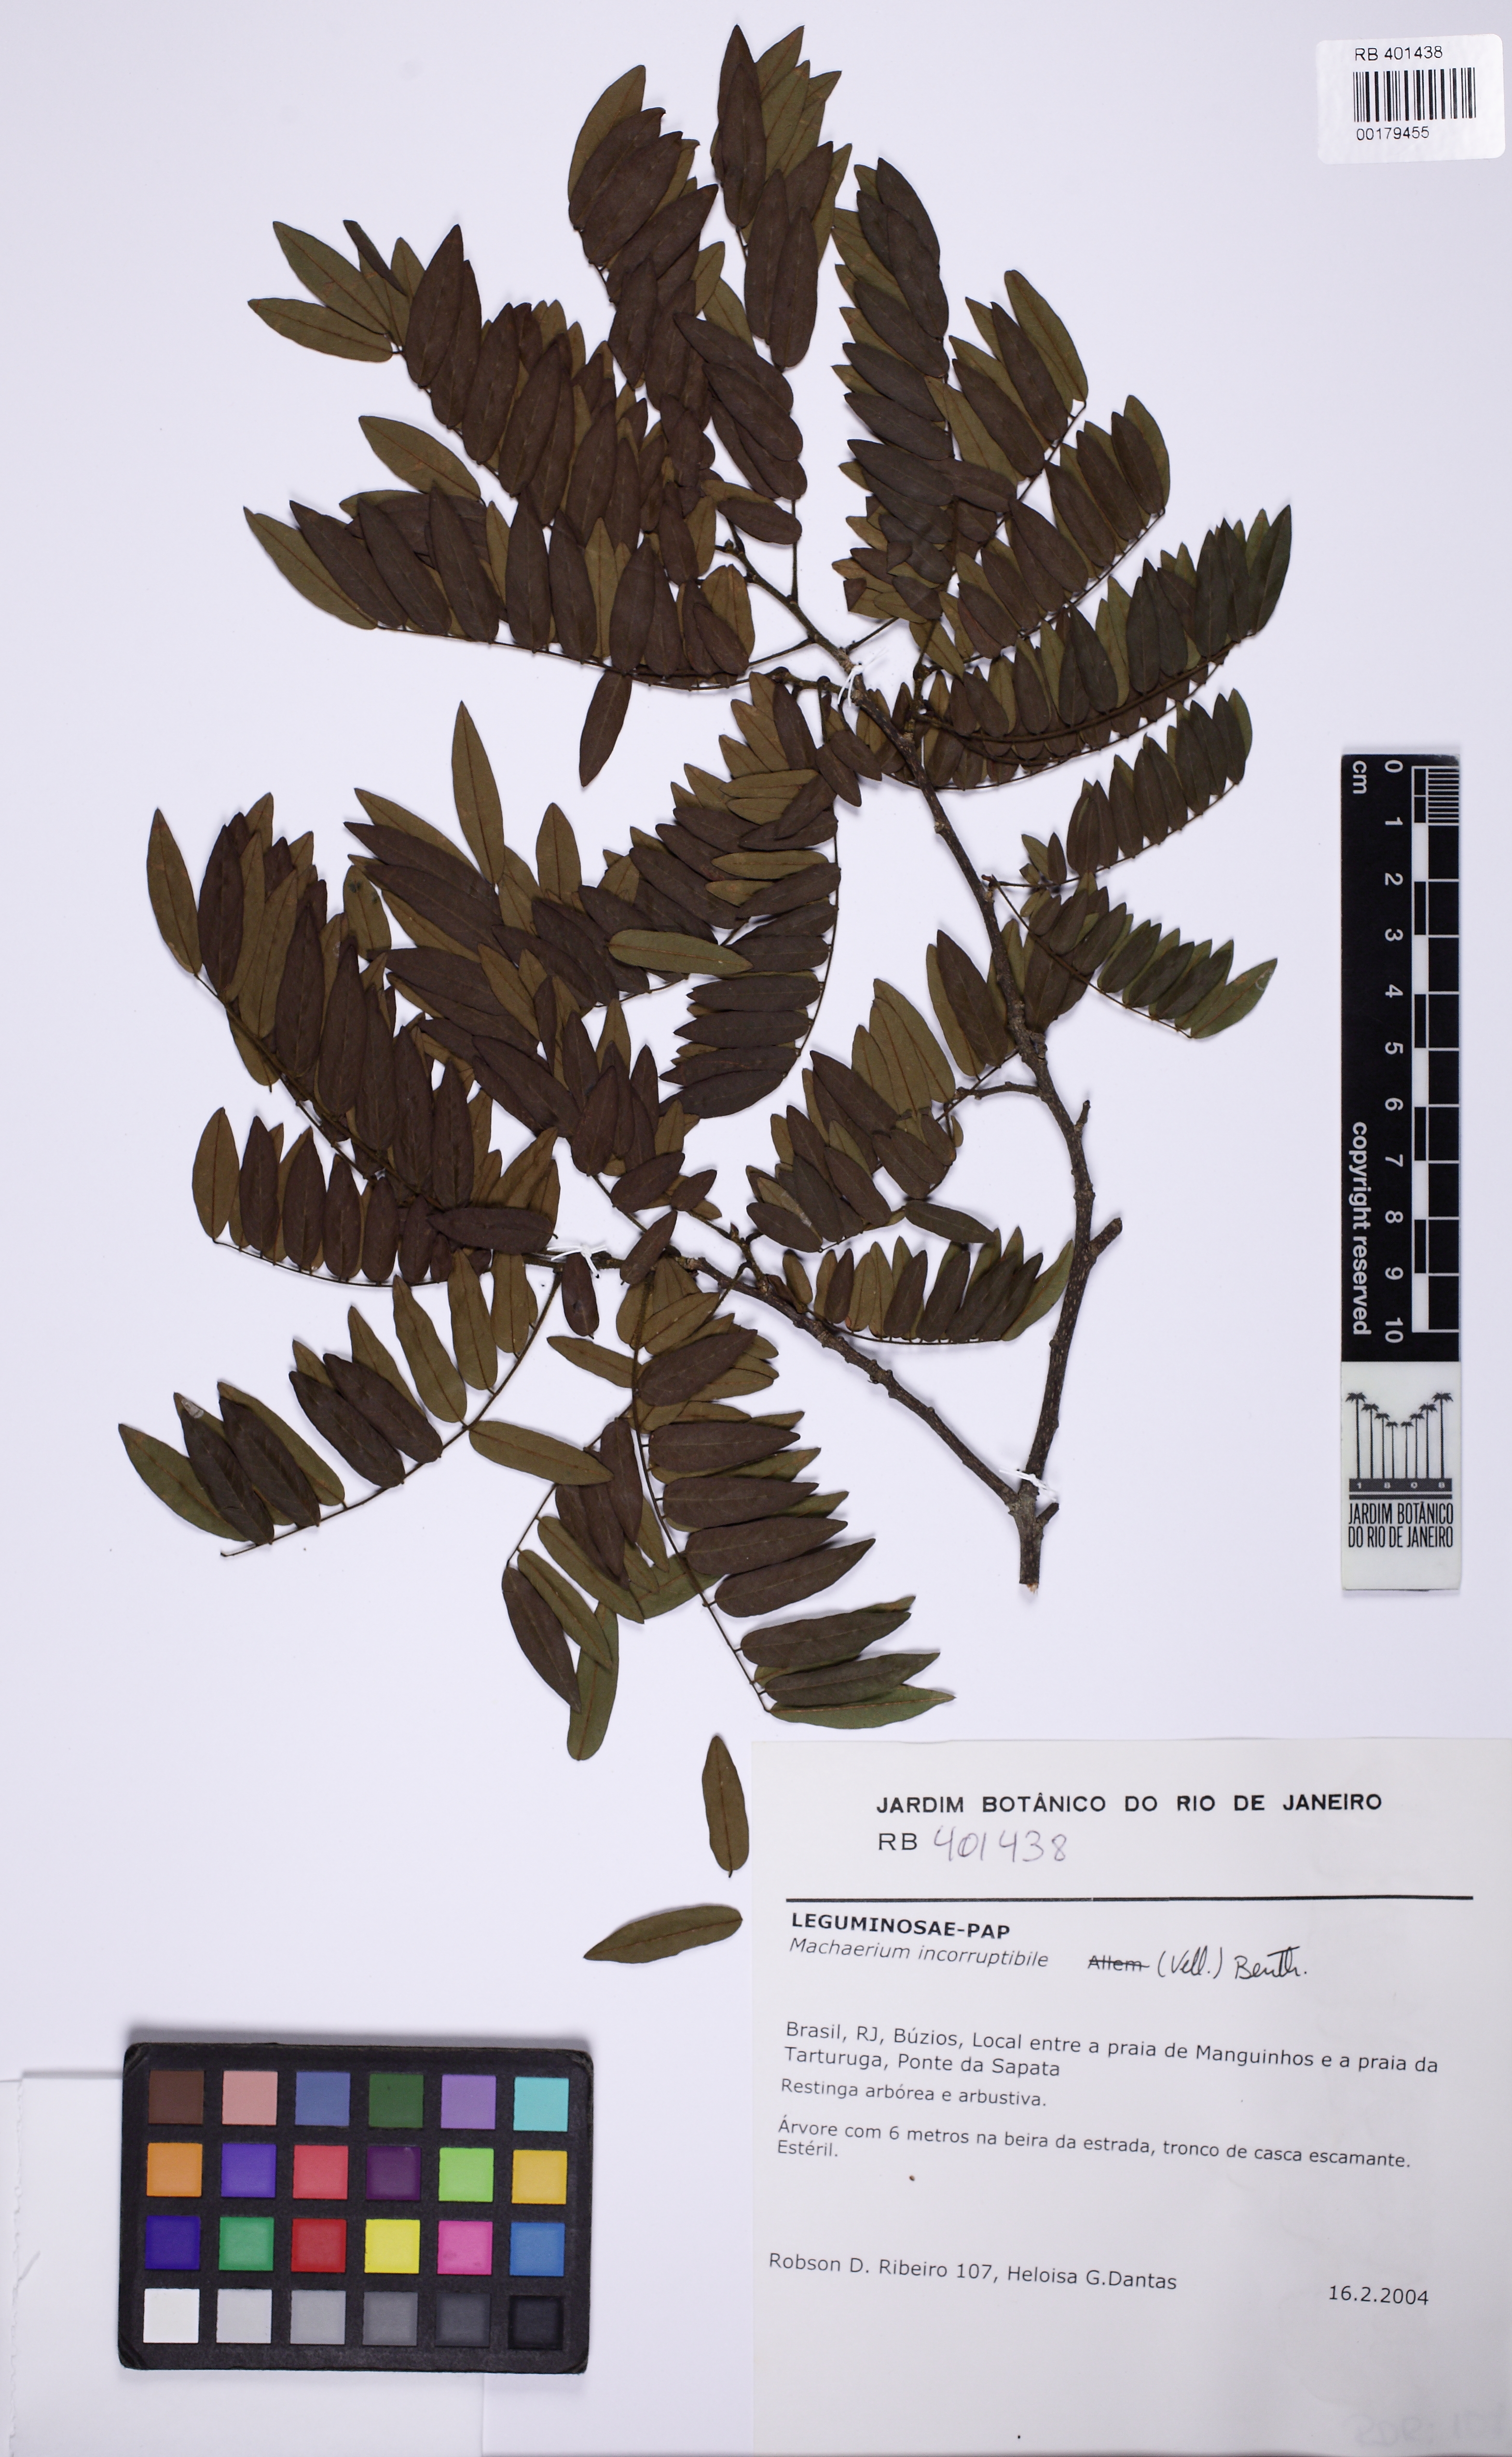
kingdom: Plantae
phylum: Tracheophyta
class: Magnoliopsida
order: Fabales
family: Fabaceae
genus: Machaerium
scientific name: Machaerium incorruptibile
